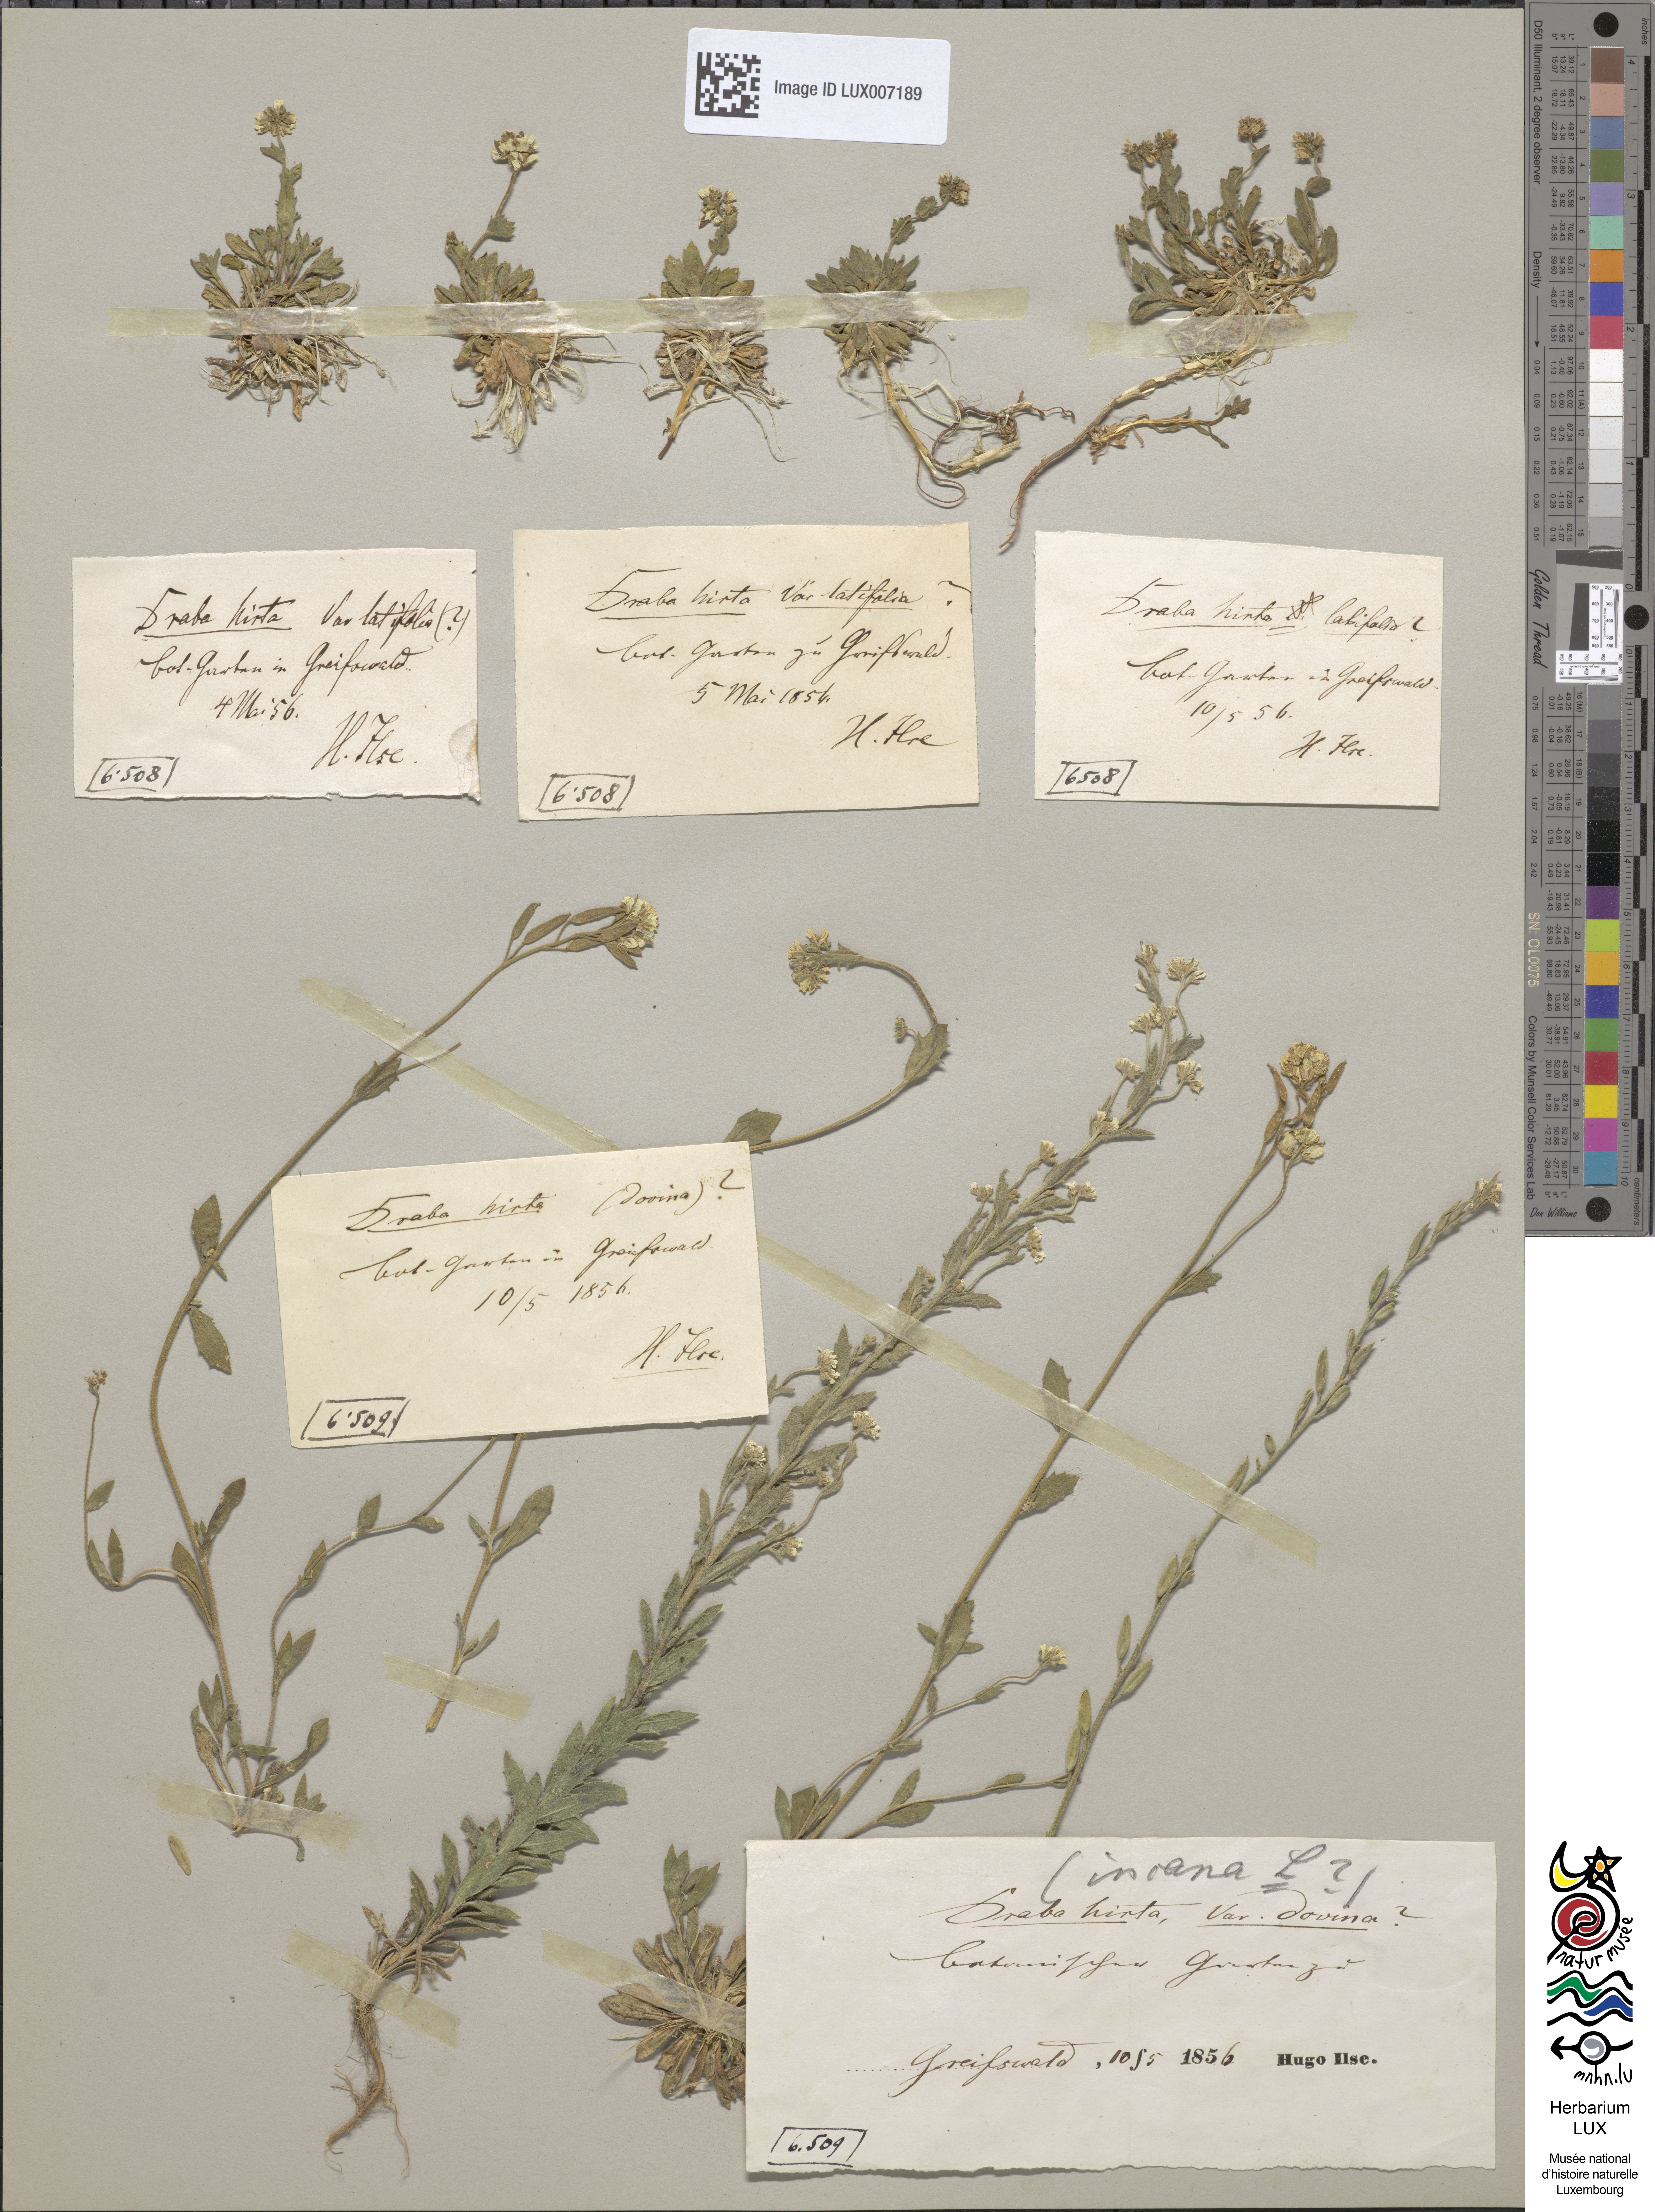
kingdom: Plantae
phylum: Tracheophyta
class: Magnoliopsida
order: Brassicales
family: Brassicaceae
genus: Draba
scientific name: Draba stellata
